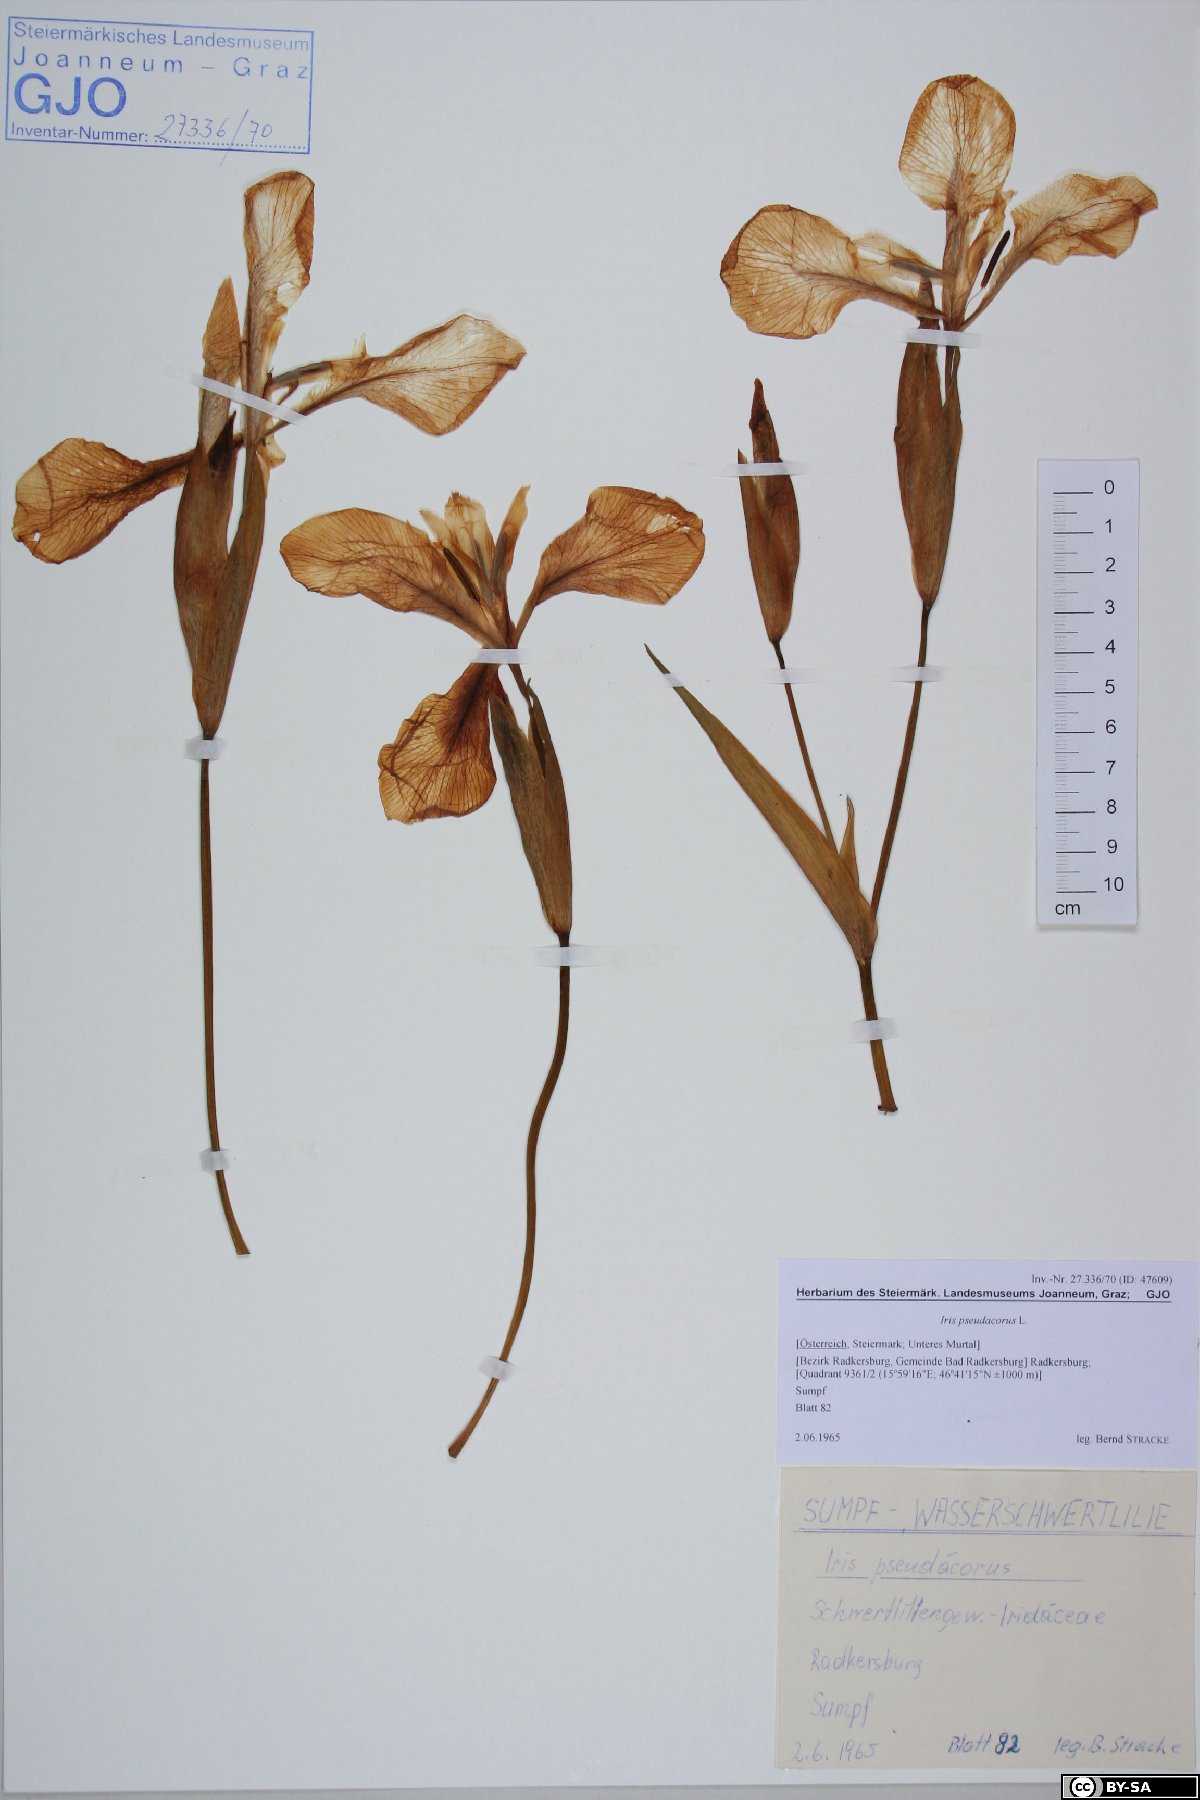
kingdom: Plantae
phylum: Tracheophyta
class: Liliopsida
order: Asparagales
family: Iridaceae
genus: Iris
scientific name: Iris pseudacorus
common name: Yellow flag
